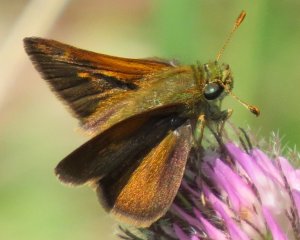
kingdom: Animalia
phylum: Arthropoda
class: Insecta
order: Lepidoptera
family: Hesperiidae
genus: Polites
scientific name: Polites themistocles
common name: Tawny-edged Skipper
